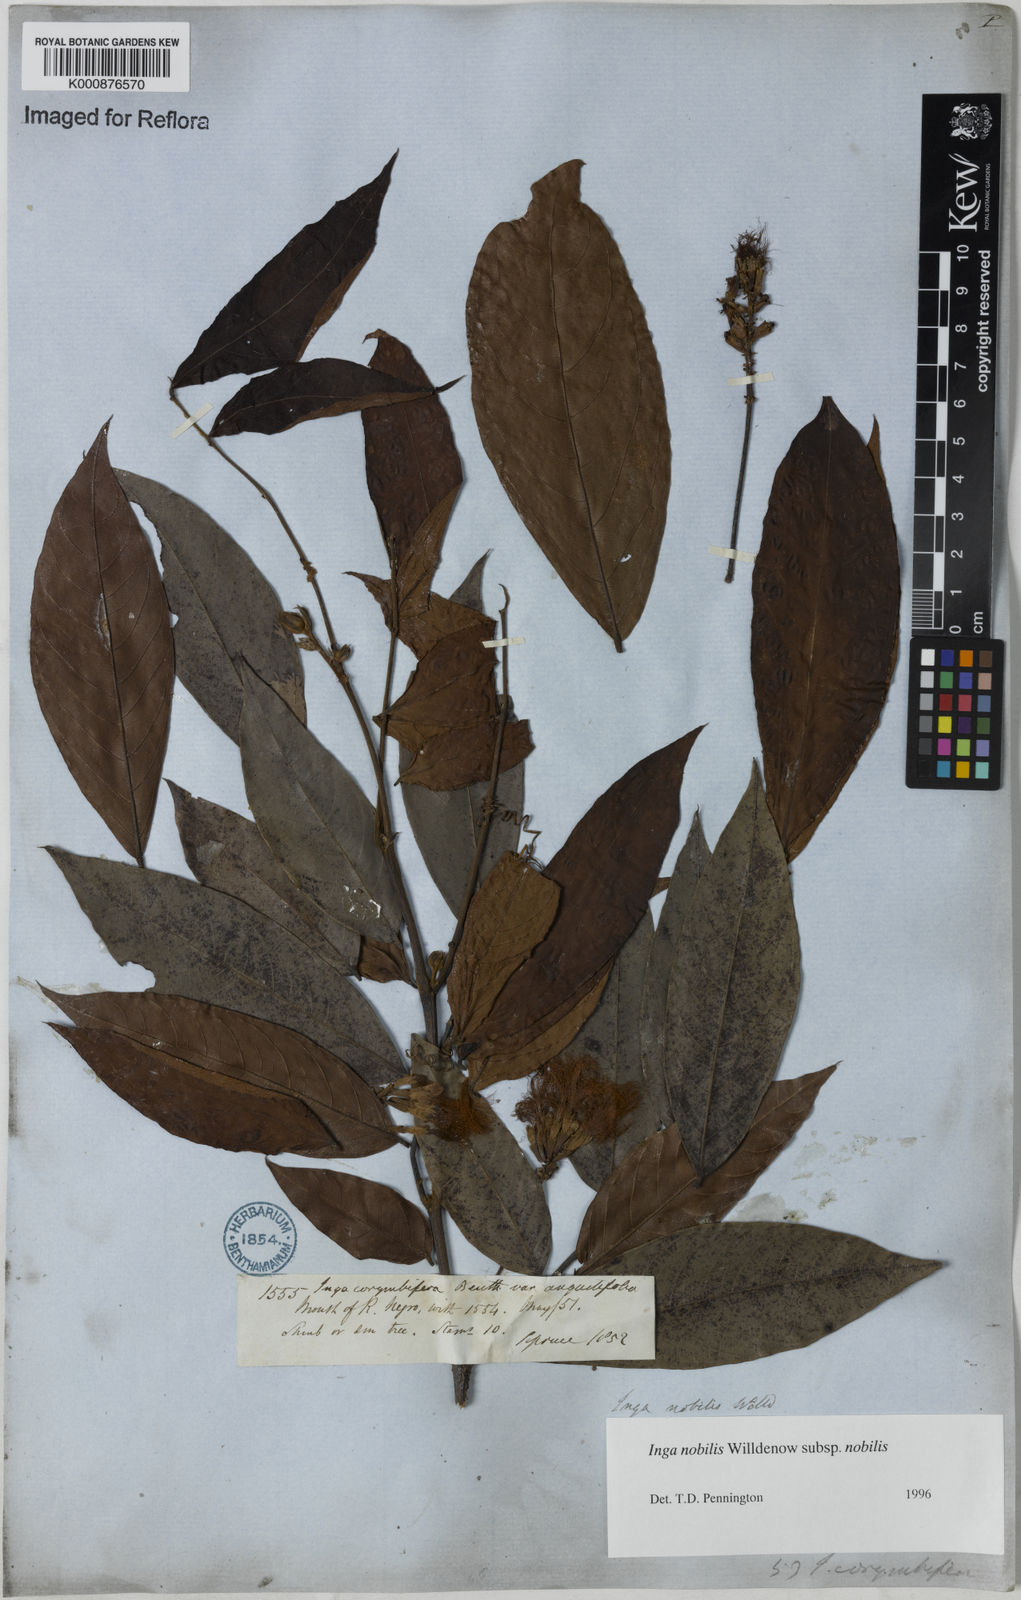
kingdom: Plantae
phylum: Tracheophyta
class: Magnoliopsida
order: Fabales
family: Fabaceae
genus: Inga
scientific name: Inga nobilis
